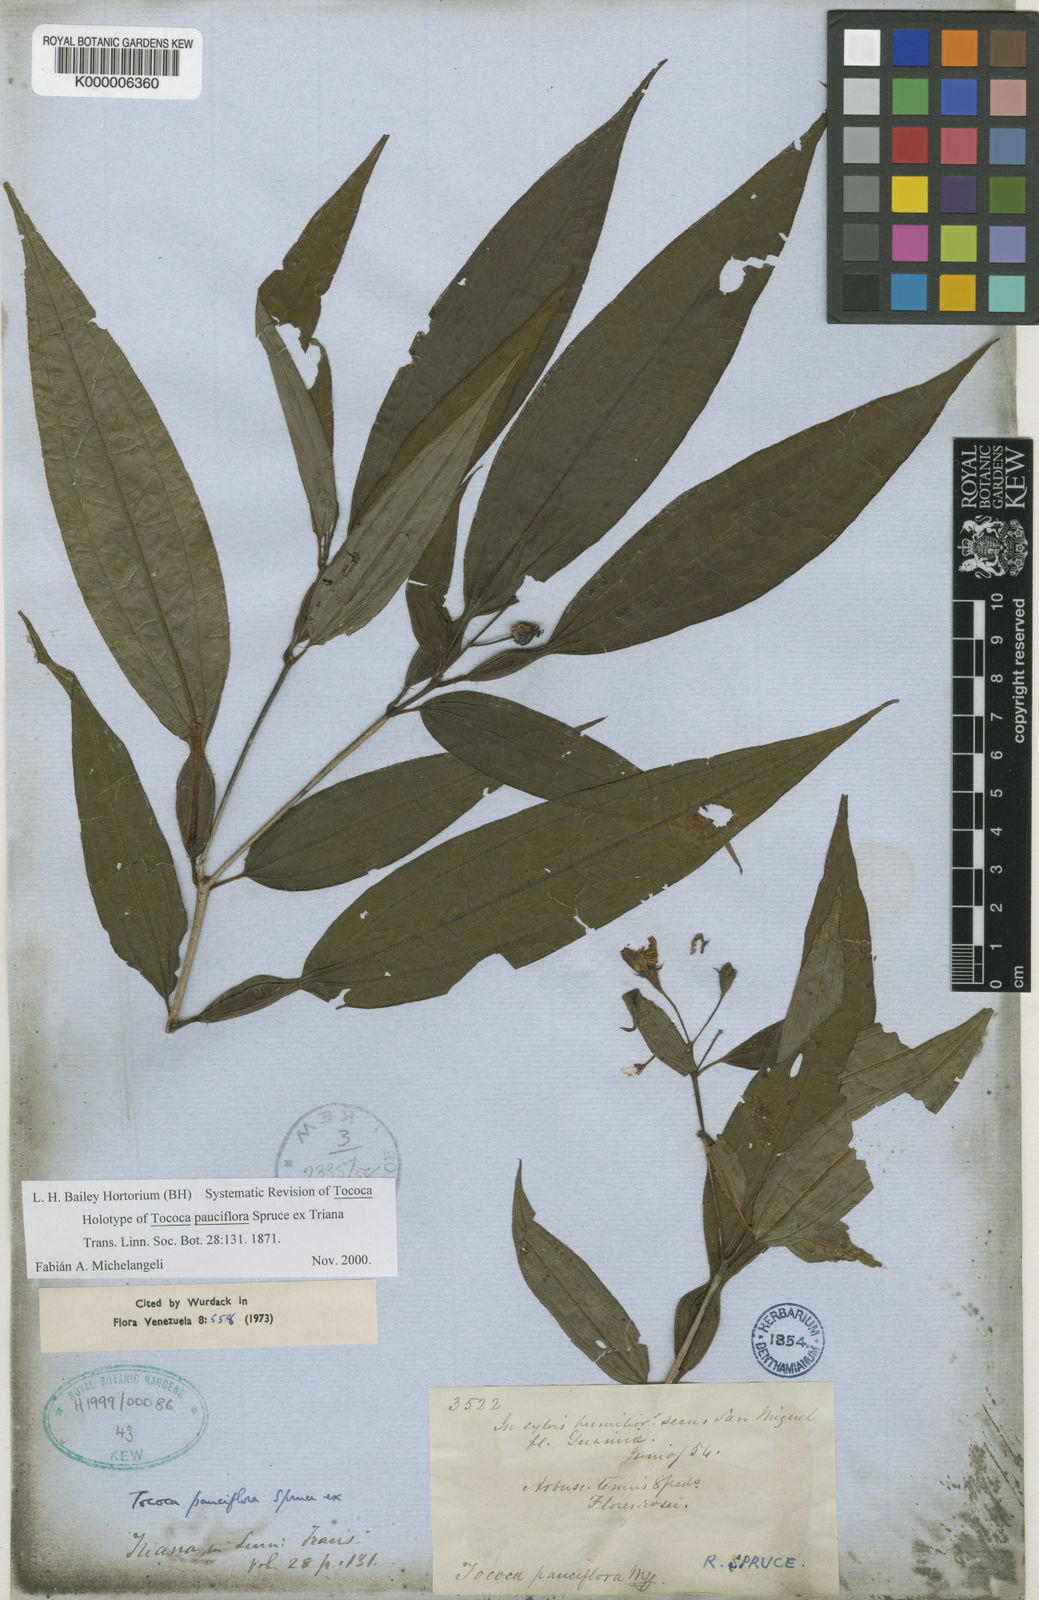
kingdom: Plantae
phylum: Tracheophyta
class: Magnoliopsida
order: Myrtales
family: Melastomataceae
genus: Miconia
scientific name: Miconia tocopauciflora
